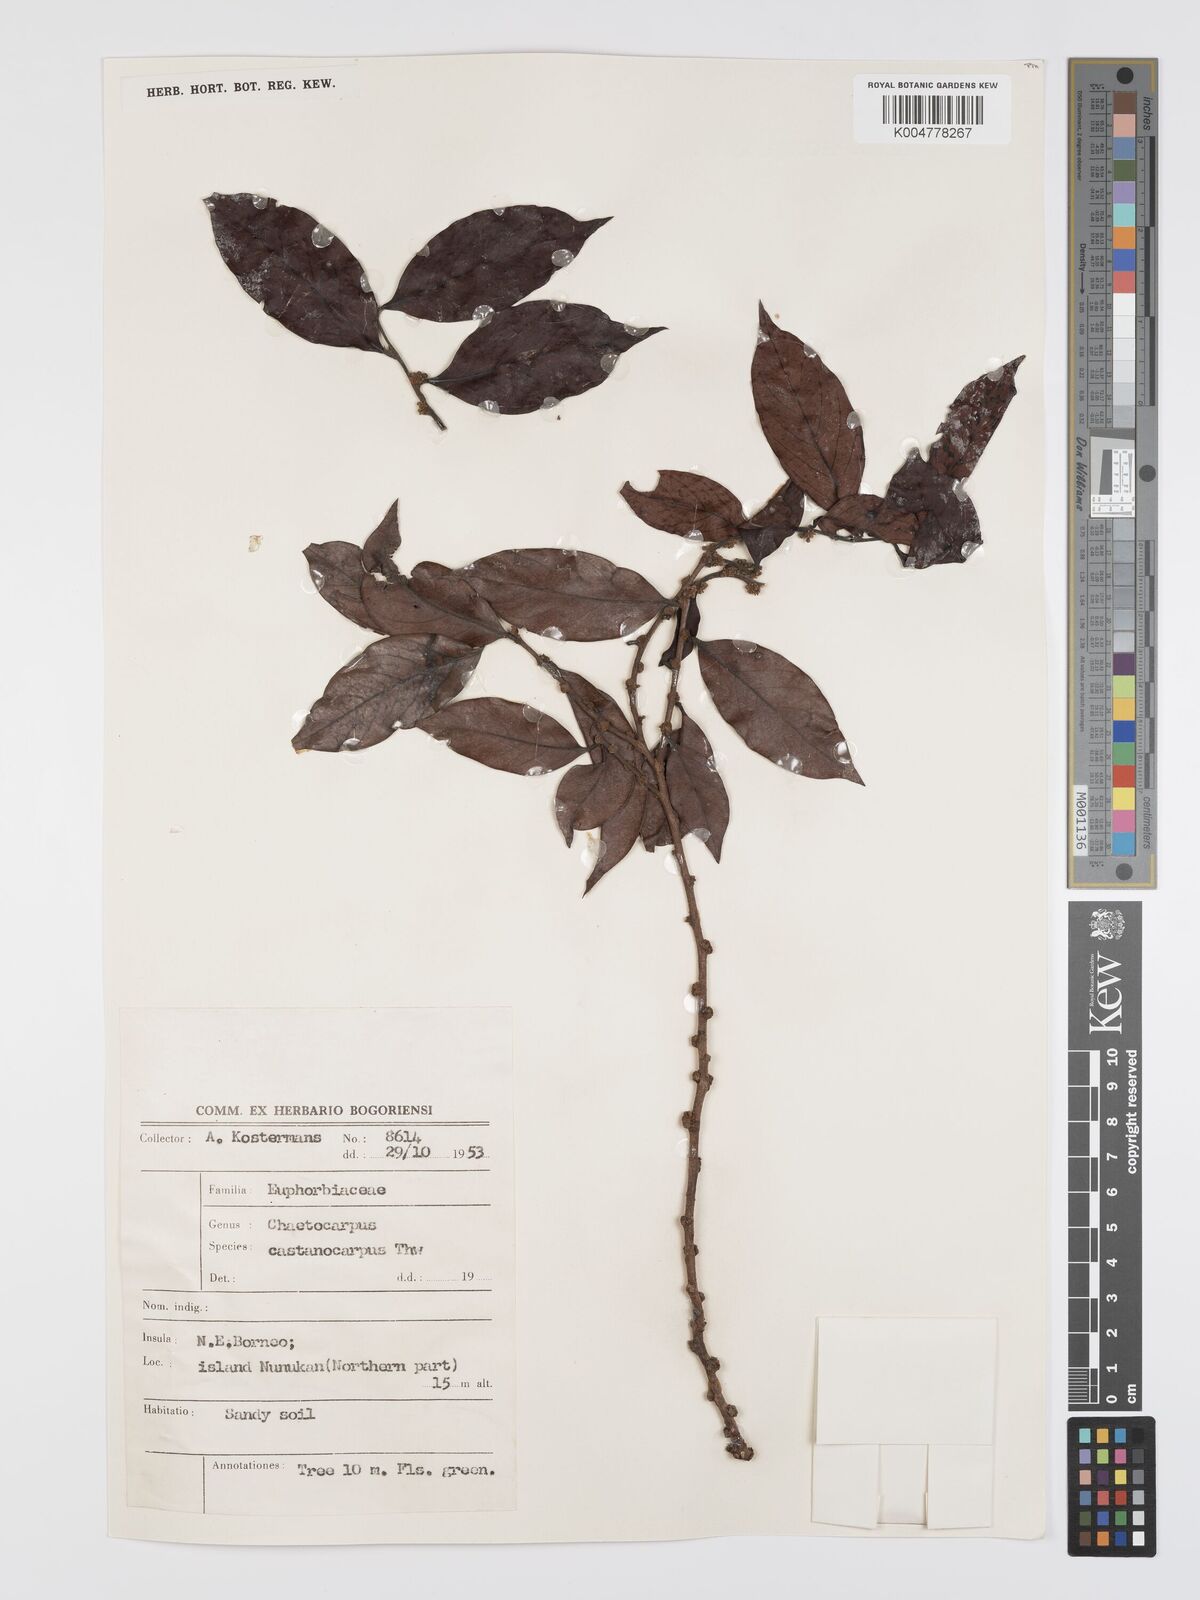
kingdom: Plantae
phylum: Tracheophyta
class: Magnoliopsida
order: Malpighiales
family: Peraceae
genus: Chaetocarpus
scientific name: Chaetocarpus castanocarpus
